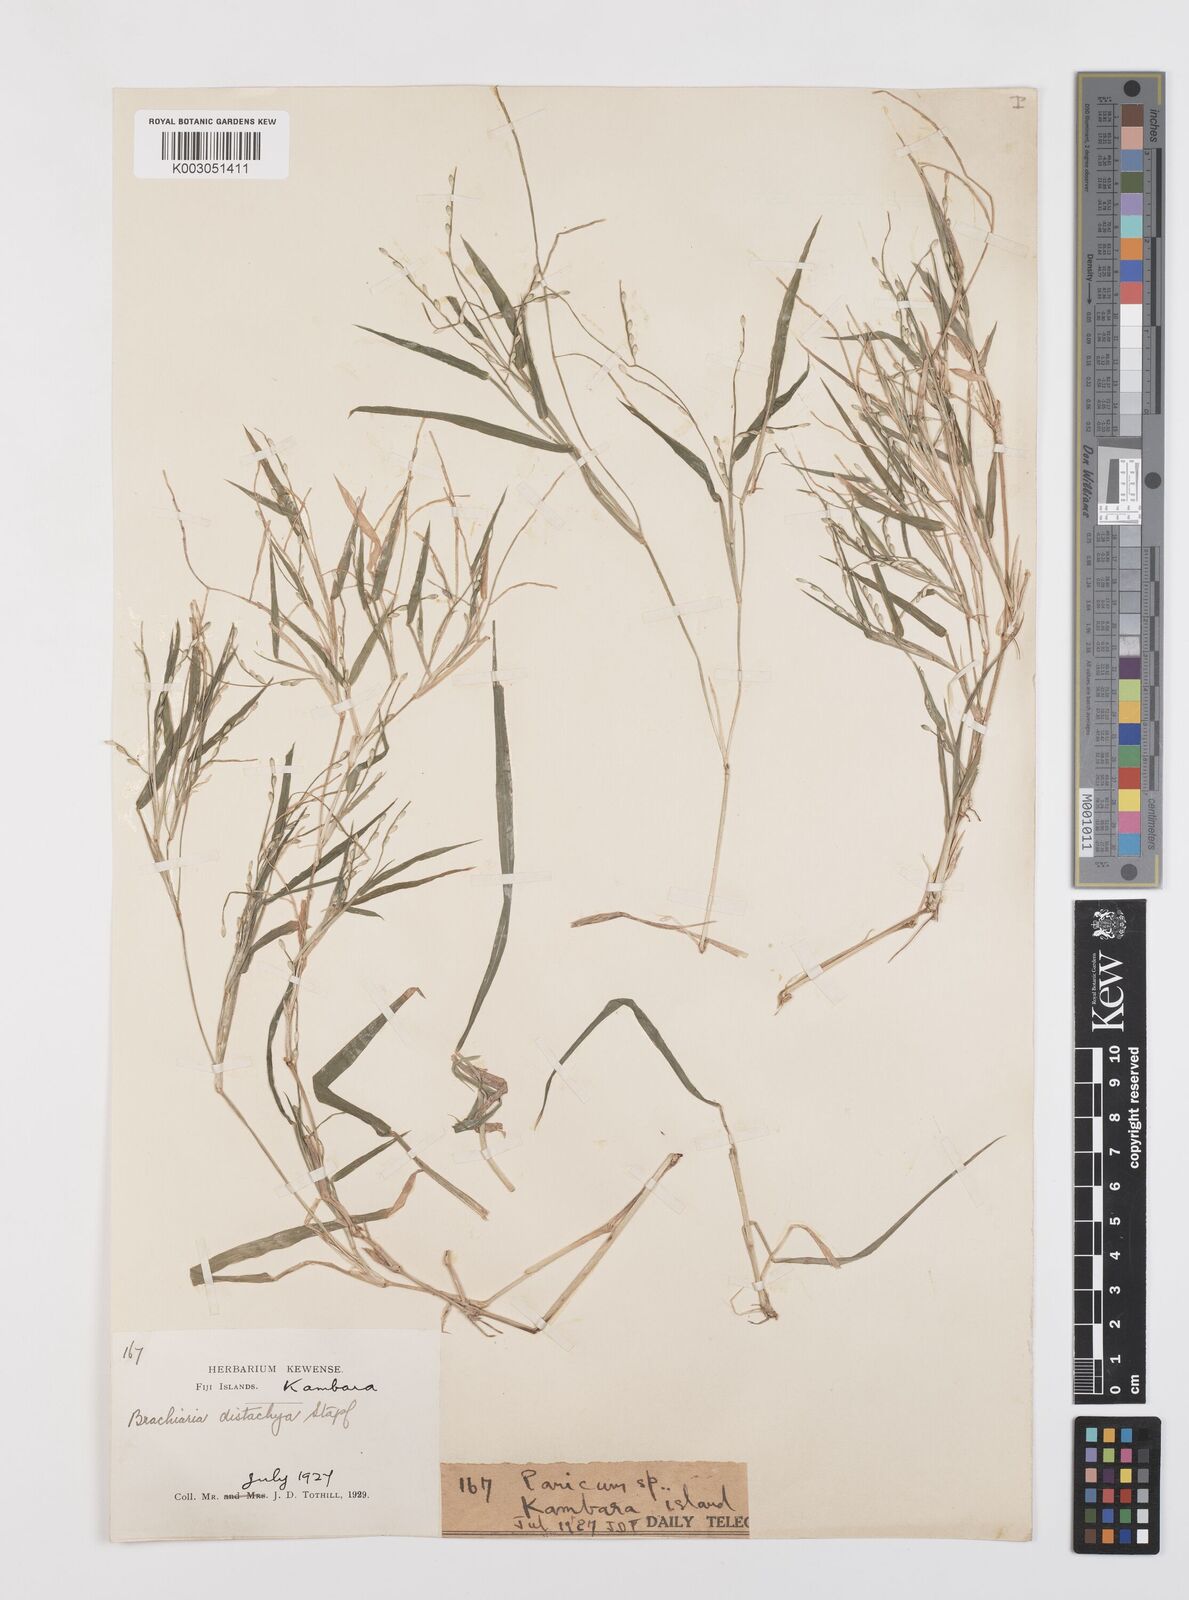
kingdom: Plantae
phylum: Tracheophyta
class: Liliopsida
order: Poales
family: Poaceae
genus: Urochloa
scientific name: Urochloa subquadripara
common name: Armgrass millet
